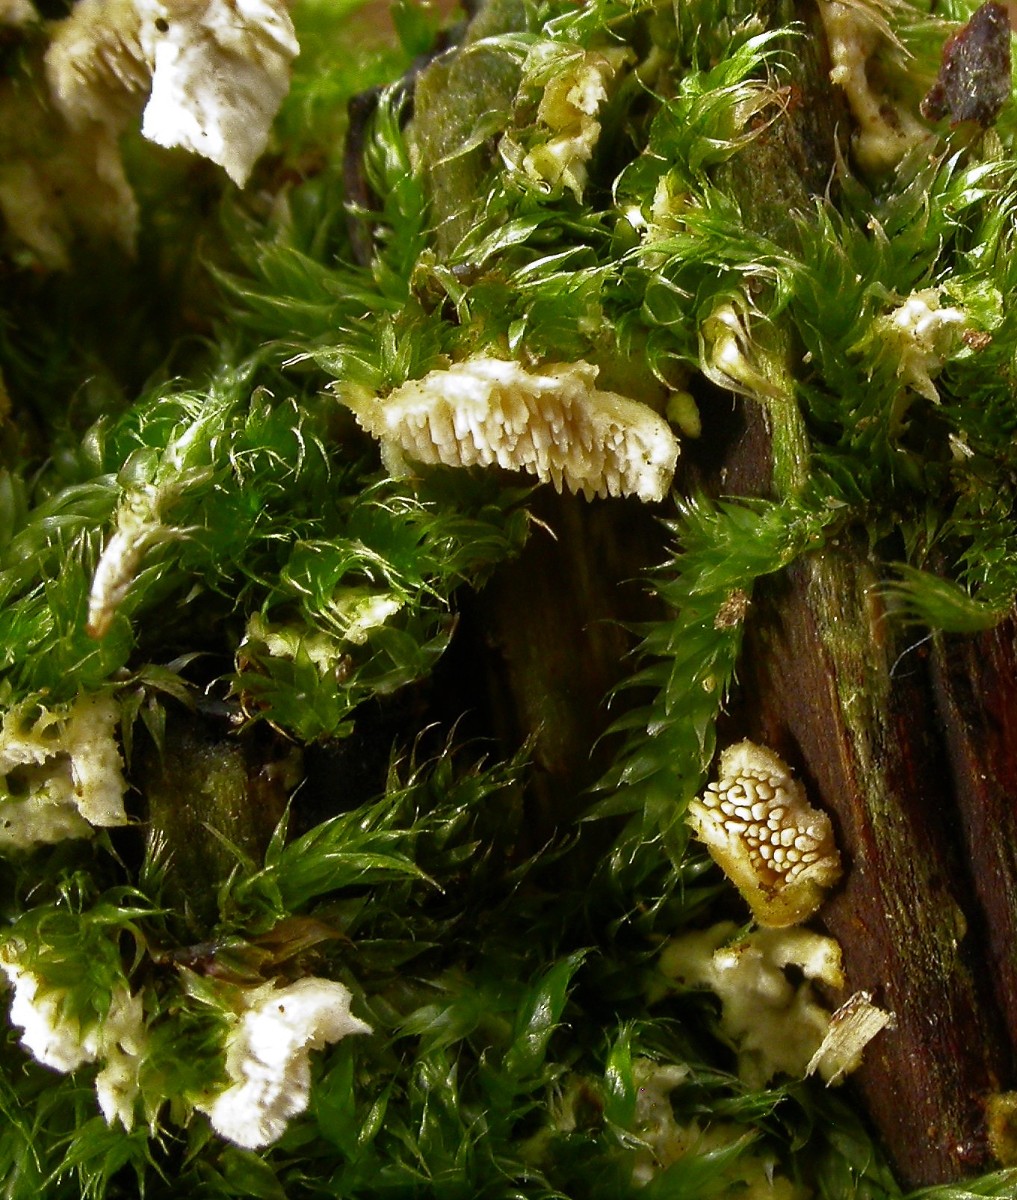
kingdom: Fungi
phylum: Basidiomycota
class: Agaricomycetes
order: Polyporales
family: Steccherinaceae
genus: Steccherinum
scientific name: Steccherinum ochraceum
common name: almindelig skønpig
